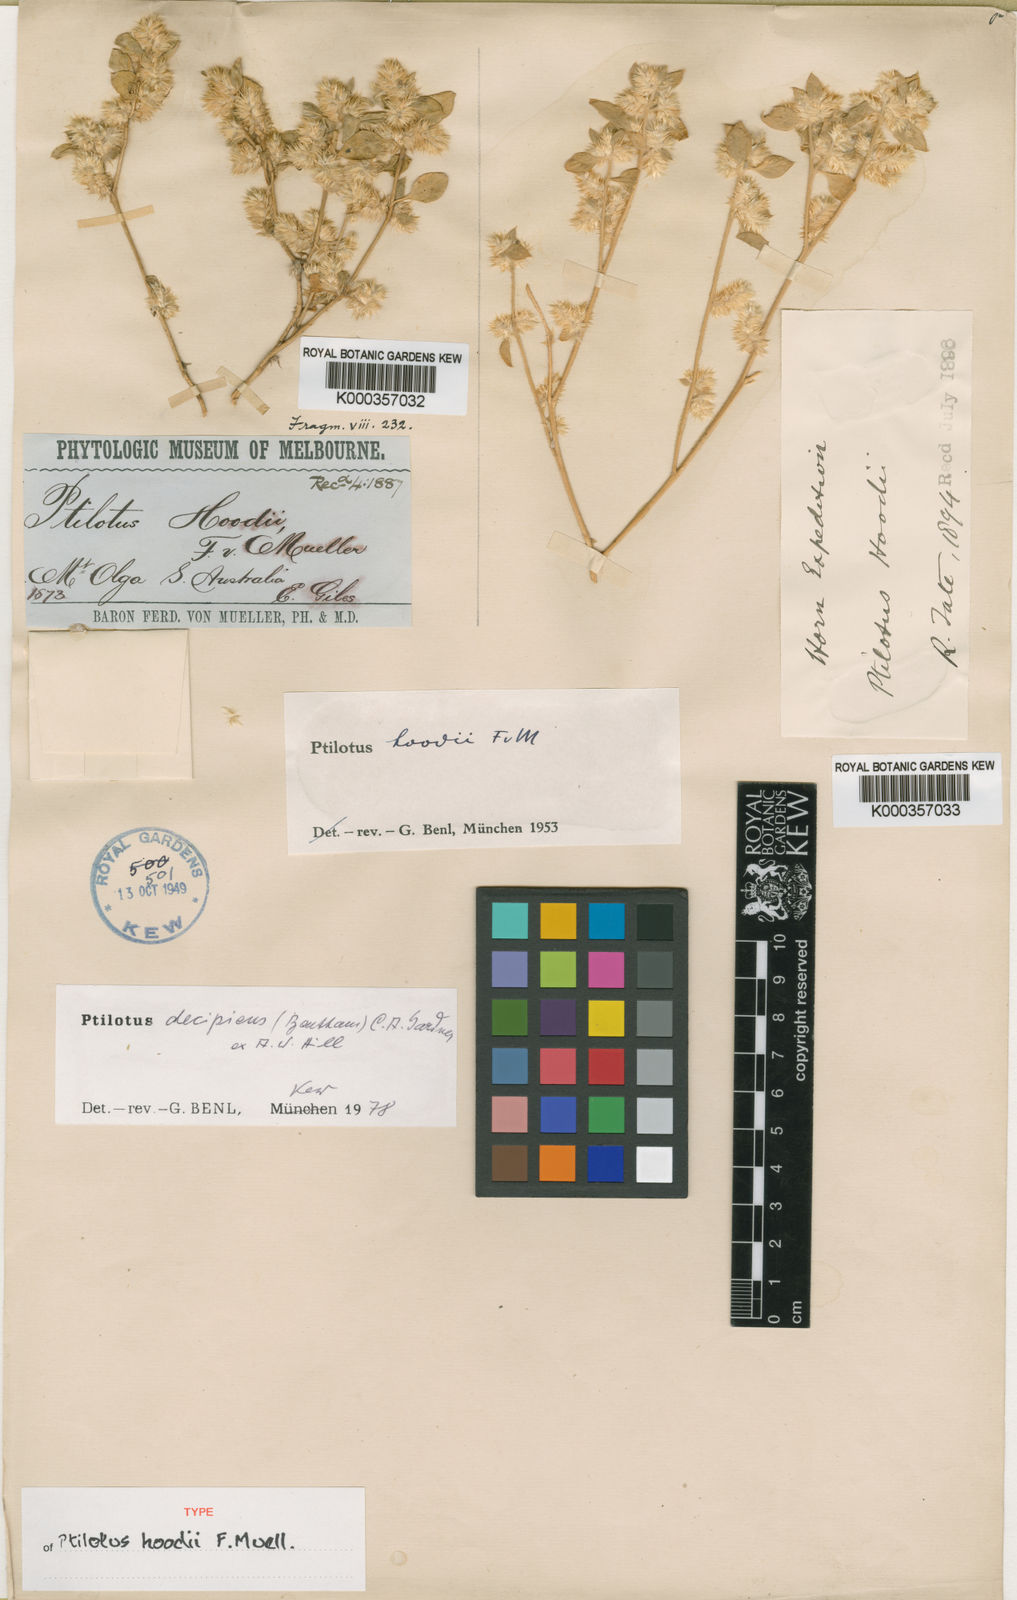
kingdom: Plantae
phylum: Tracheophyta
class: Magnoliopsida
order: Caryophyllales
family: Amaranthaceae
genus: Ptilotus
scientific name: Ptilotus
